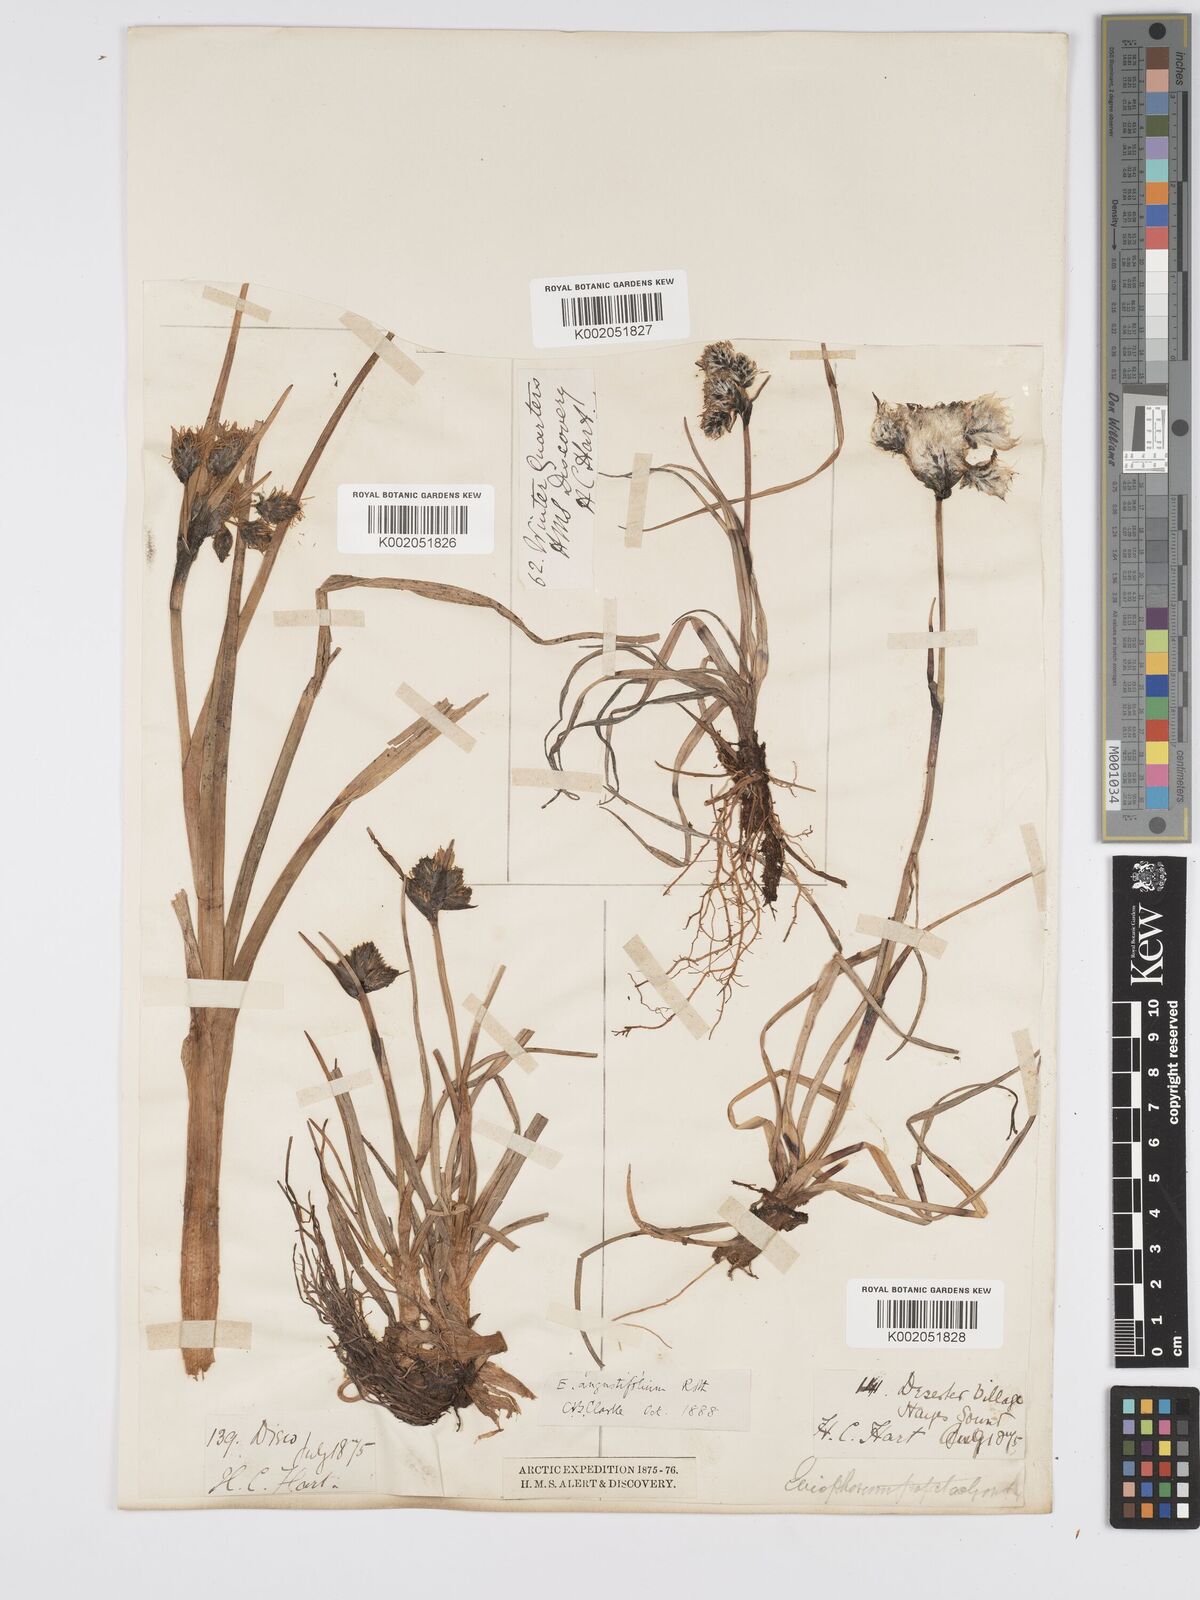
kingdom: Plantae
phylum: Tracheophyta
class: Liliopsida
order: Poales
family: Cyperaceae
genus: Eriophorum
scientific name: Eriophorum angustifolium
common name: Common cottongrass
